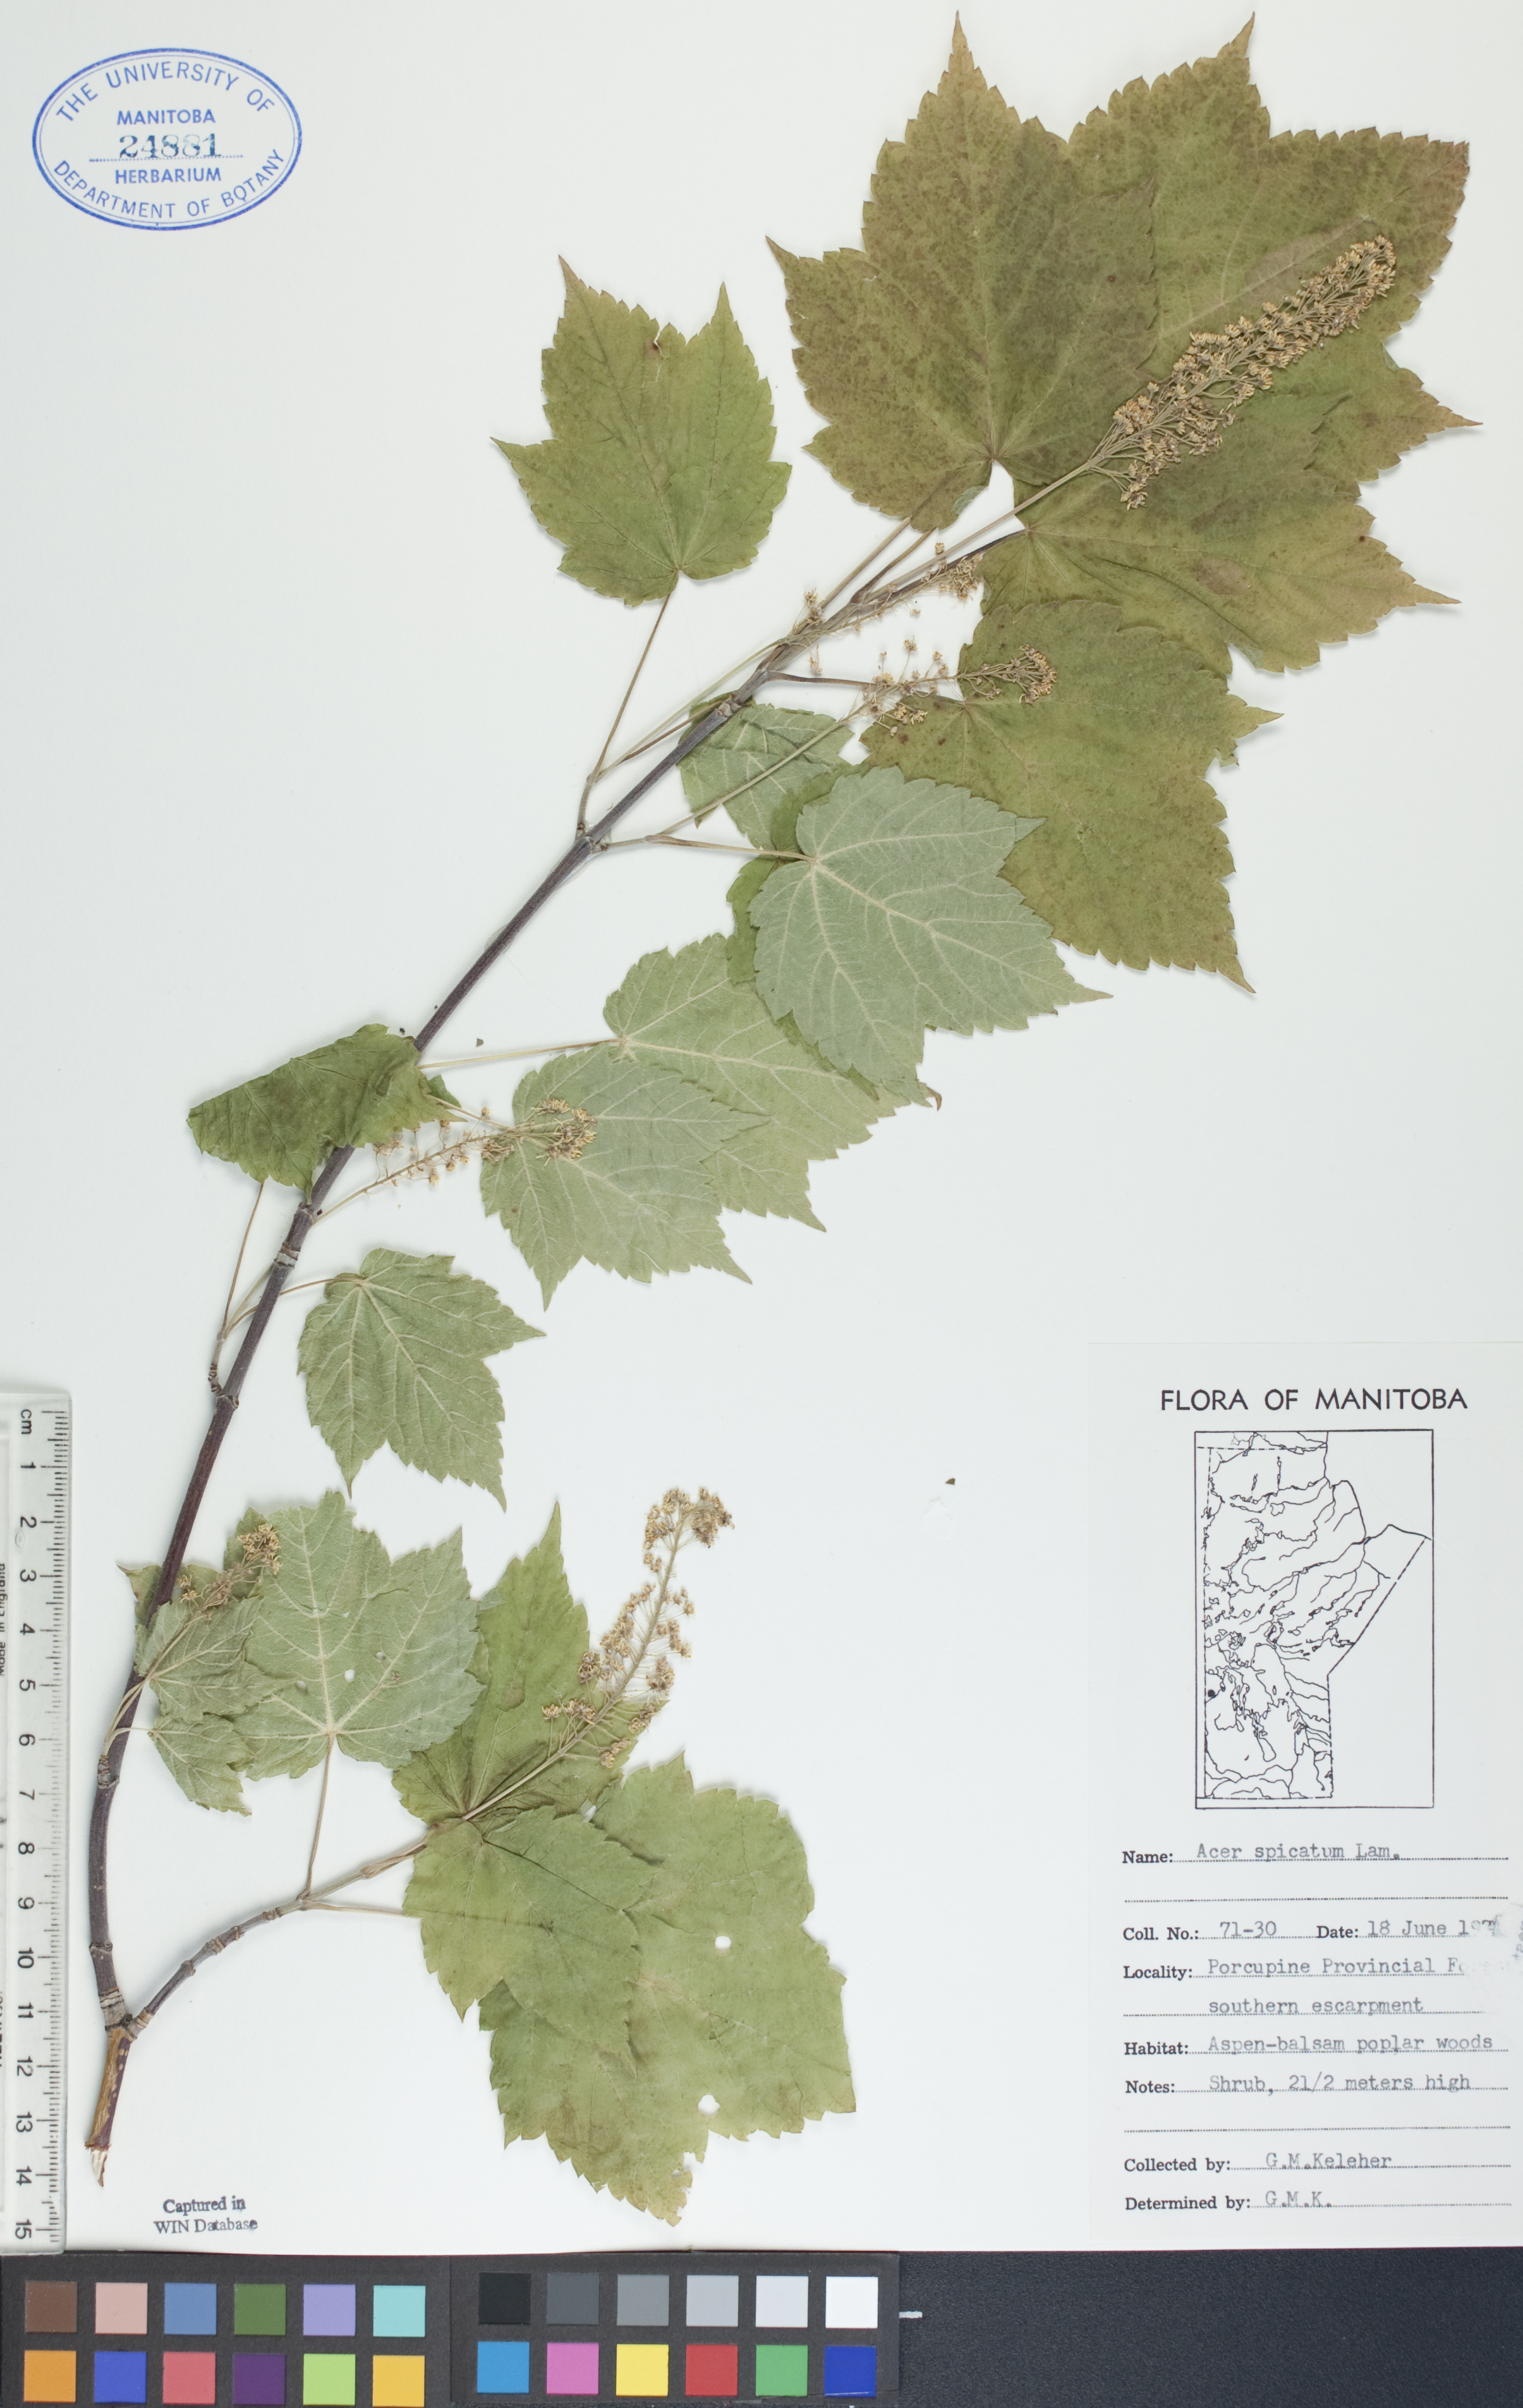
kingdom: Plantae
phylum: Tracheophyta
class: Magnoliopsida
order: Sapindales
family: Sapindaceae
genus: Acer
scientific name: Acer spicatum
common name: Mountain maple
